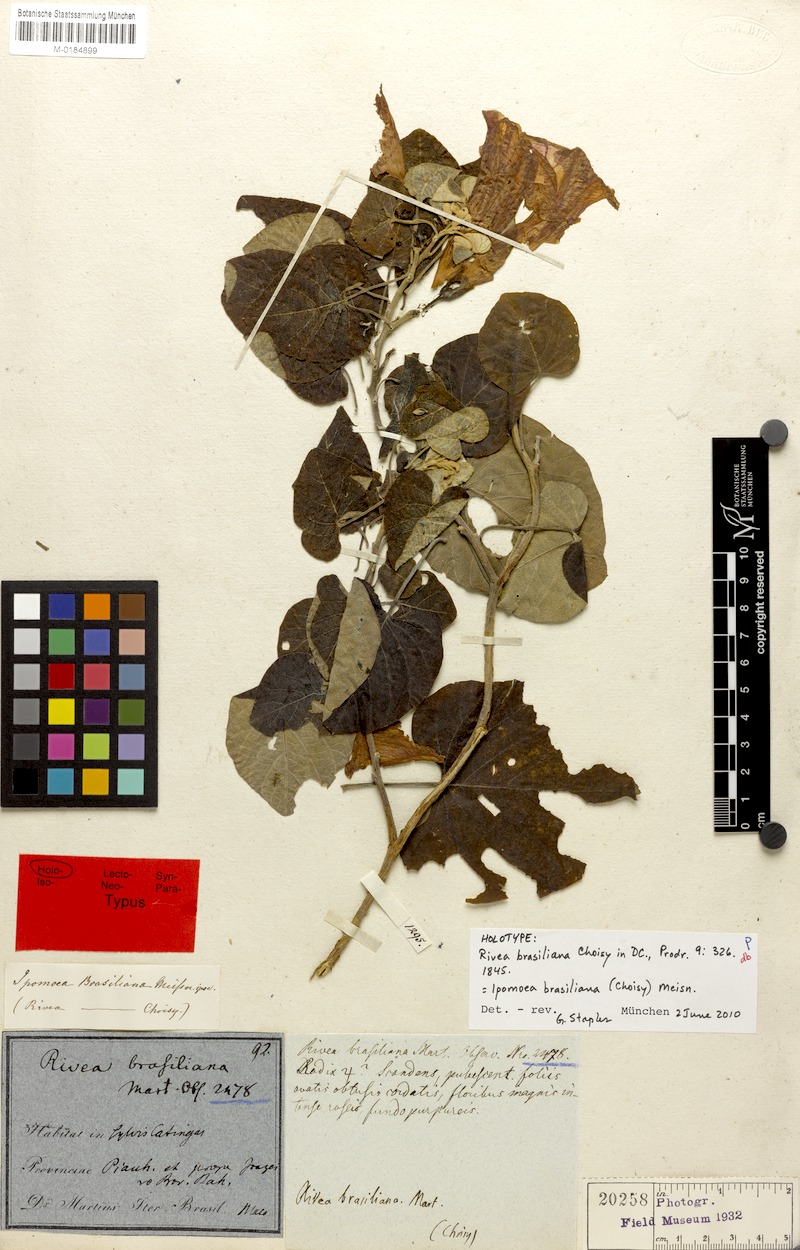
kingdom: Plantae
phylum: Tracheophyta
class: Magnoliopsida
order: Solanales
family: Convolvulaceae
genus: Ipomoea
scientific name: Ipomoea brasiliana
